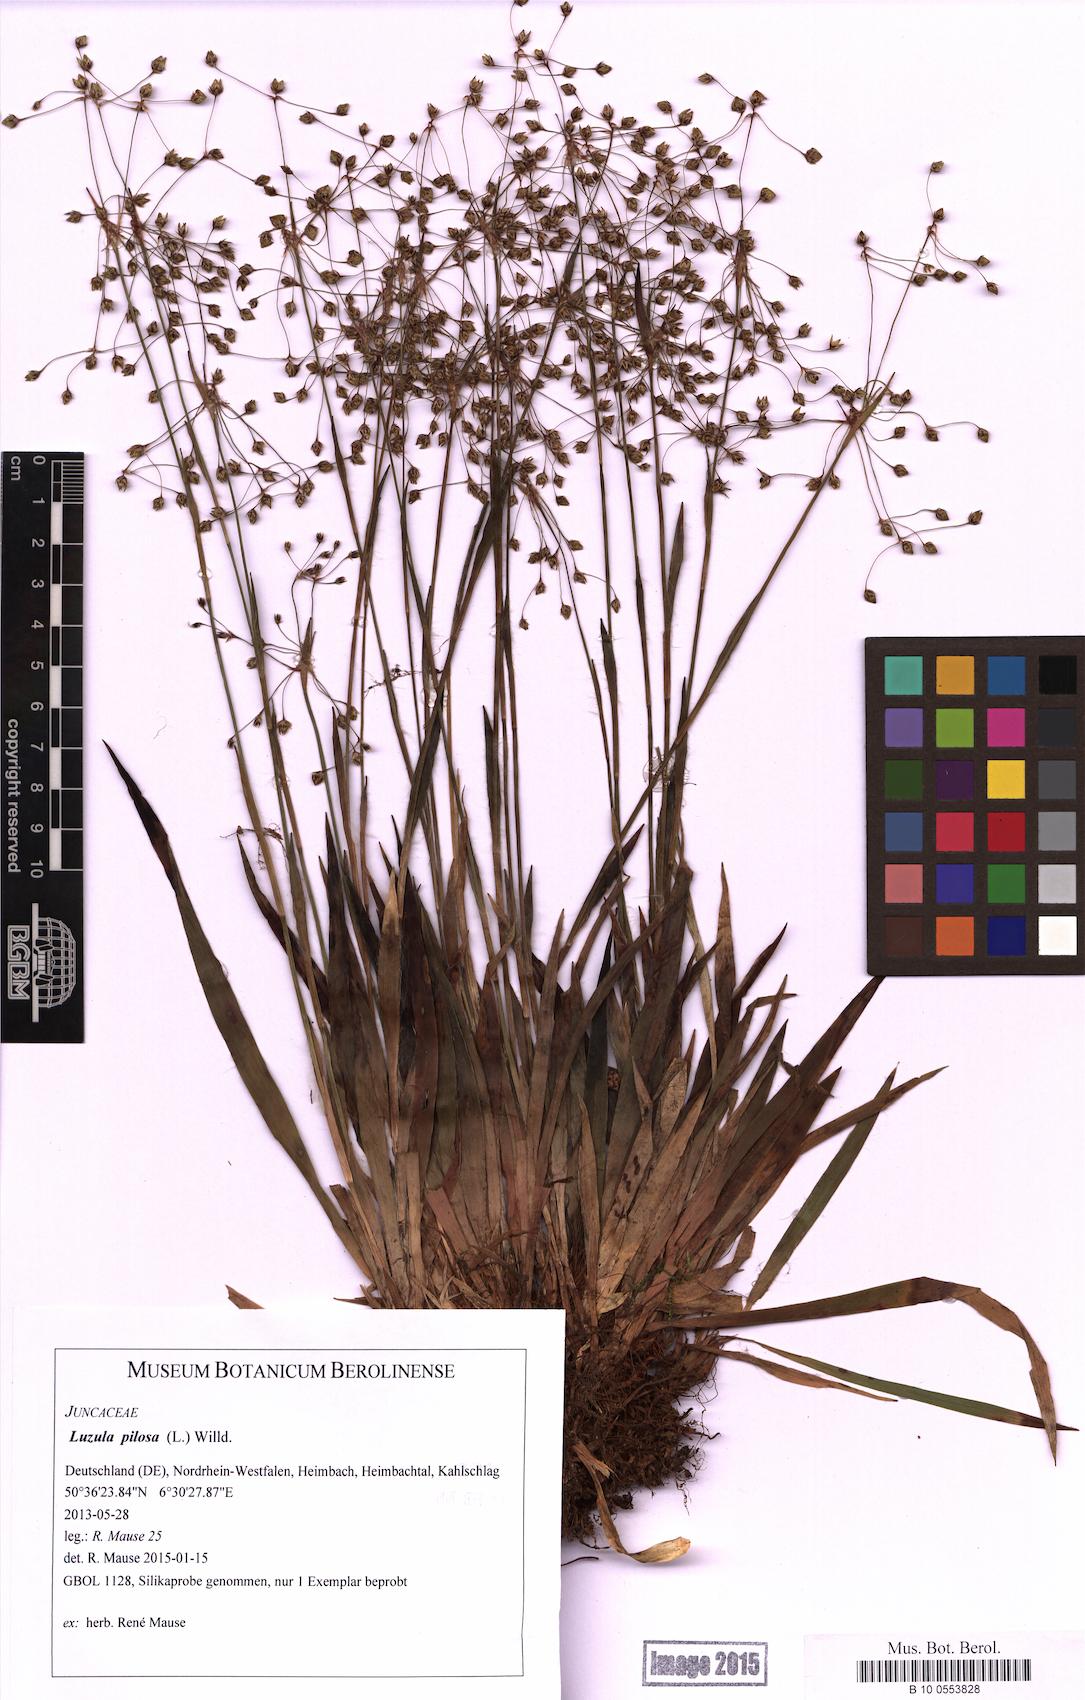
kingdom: Plantae
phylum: Tracheophyta
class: Liliopsida
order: Poales
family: Juncaceae
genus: Luzula
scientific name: Luzula pilosa
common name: Hairy wood-rush
